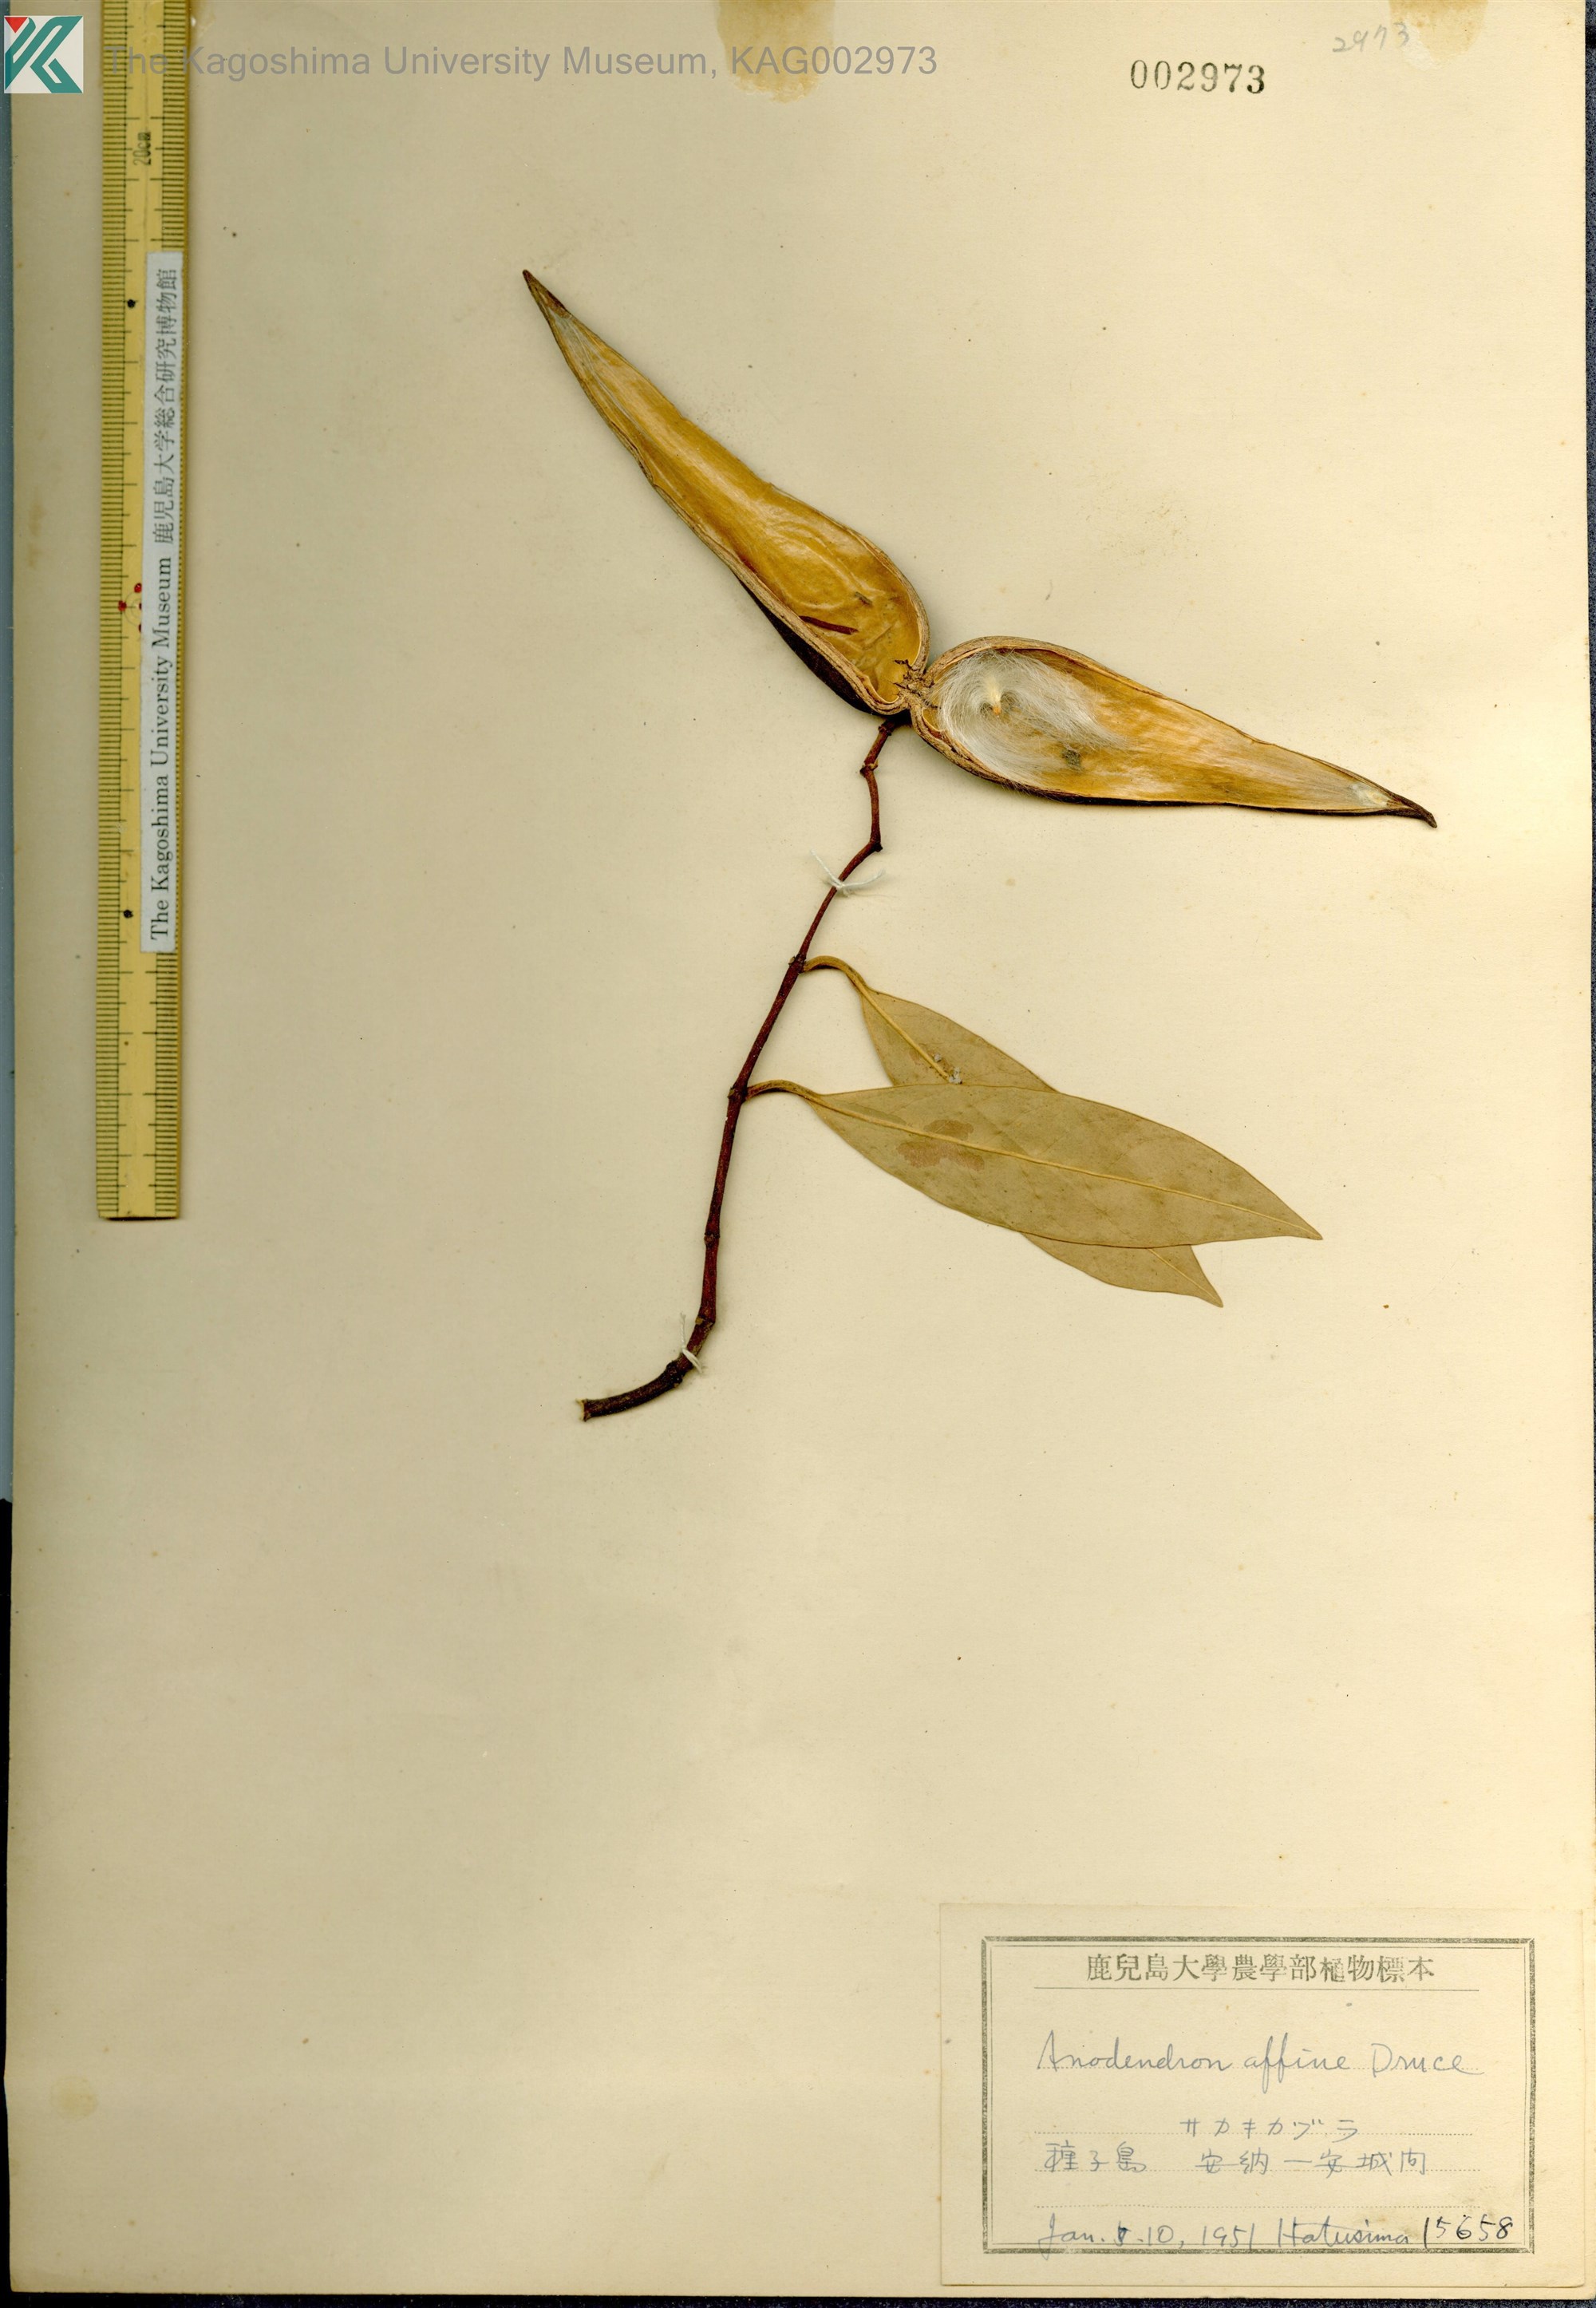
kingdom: Plantae
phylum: Tracheophyta
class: Magnoliopsida
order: Gentianales
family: Apocynaceae
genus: Anodendron
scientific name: Anodendron affine
